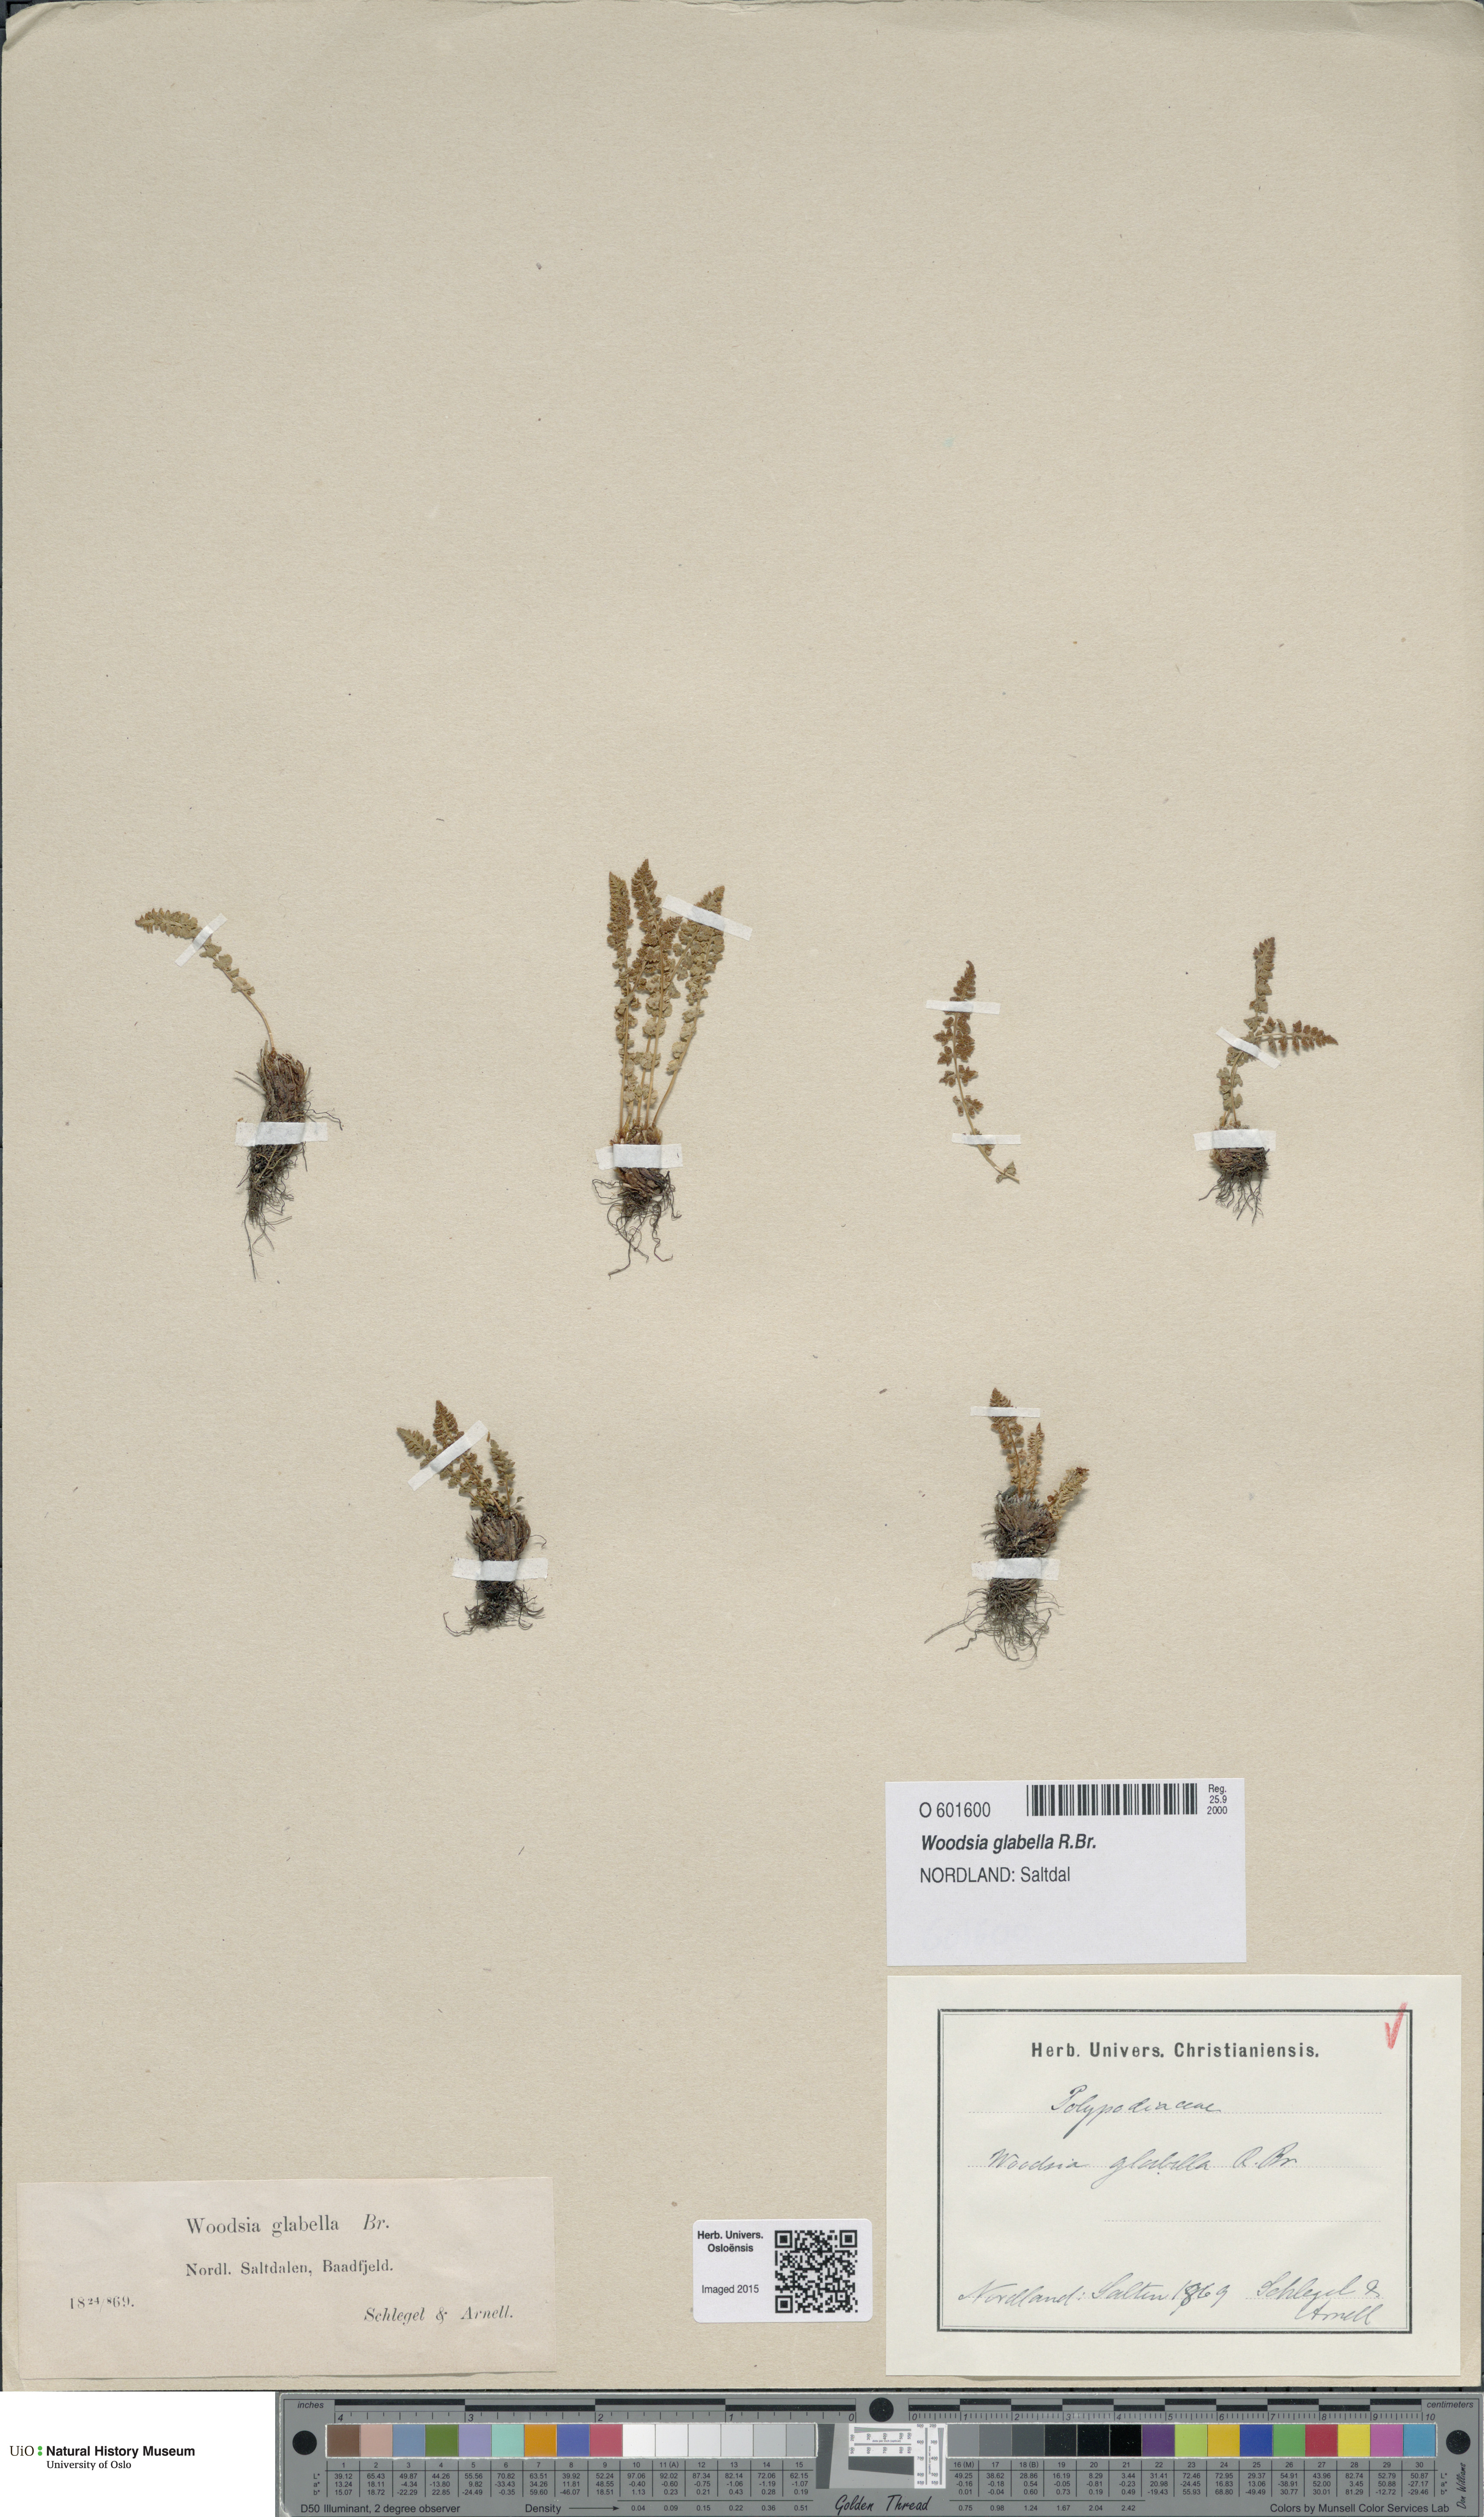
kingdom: Plantae
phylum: Tracheophyta
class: Polypodiopsida
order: Polypodiales
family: Woodsiaceae
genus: Woodsia
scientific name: Woodsia glabella
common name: Smooth woodsia
